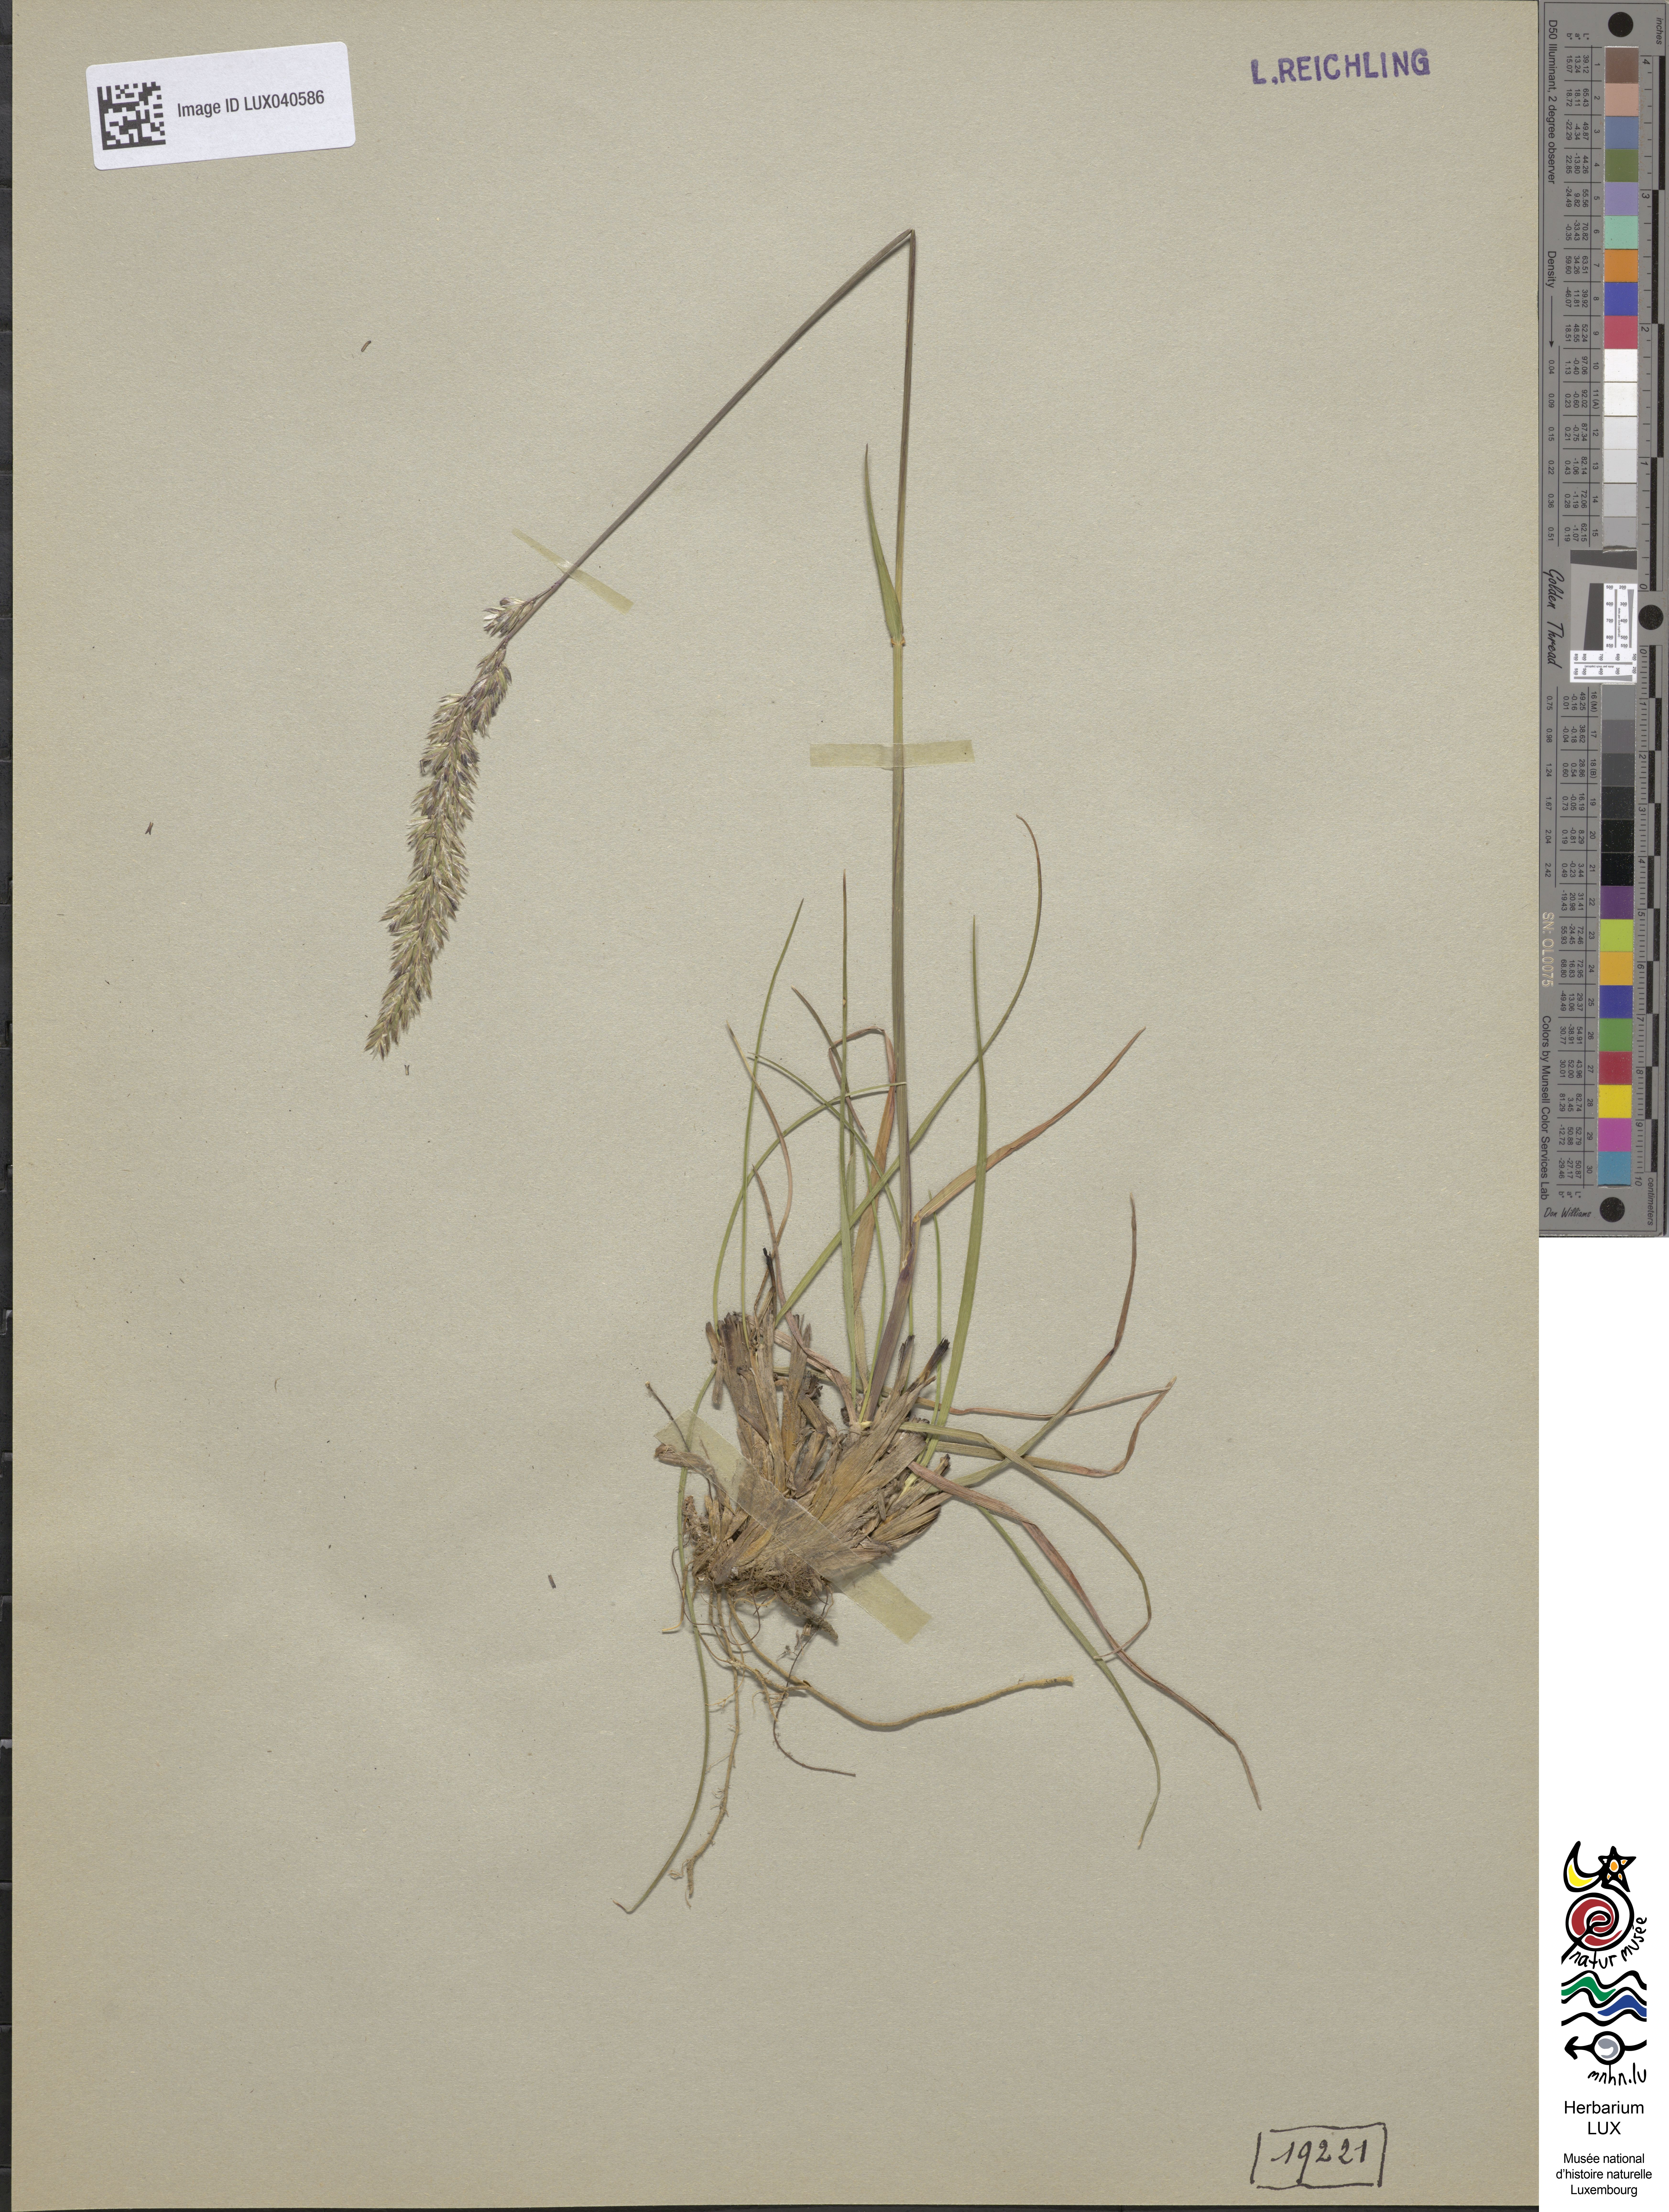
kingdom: Plantae
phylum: Tracheophyta
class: Liliopsida
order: Poales
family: Poaceae
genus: Koeleria
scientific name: Koeleria pyramidata
